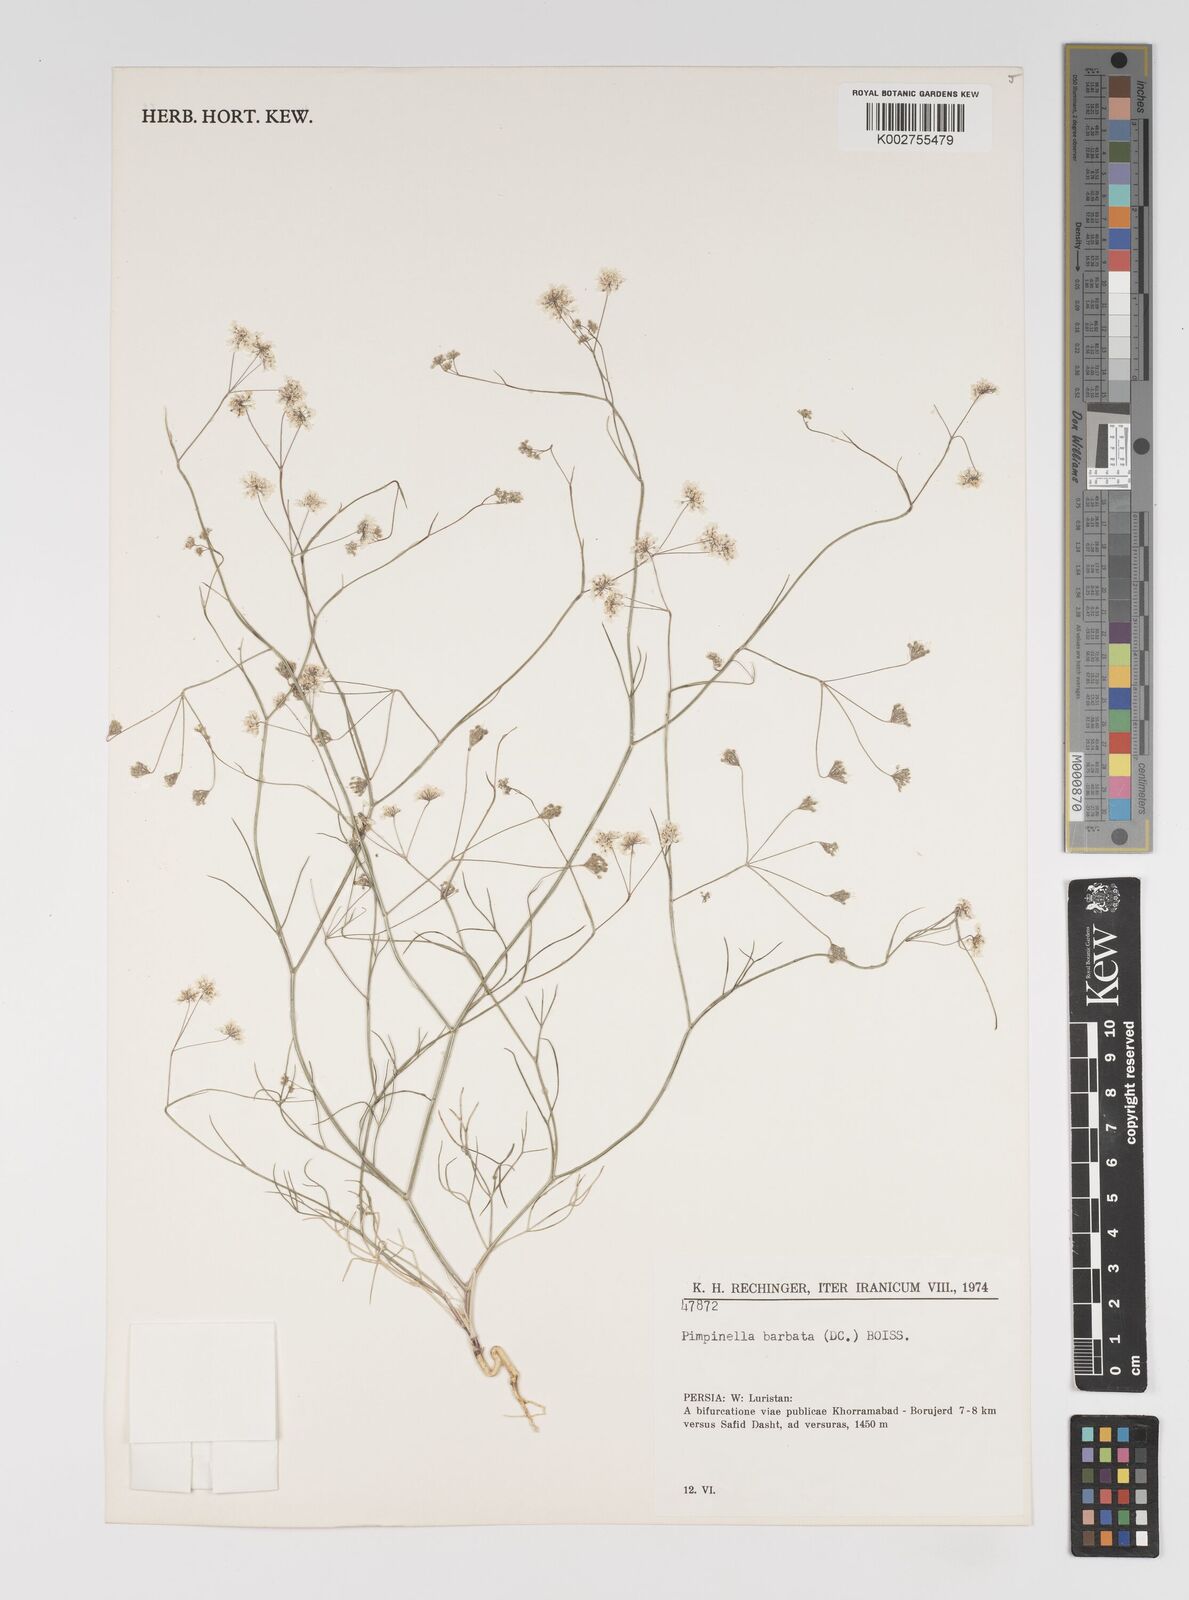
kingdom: Plantae
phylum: Tracheophyta
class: Magnoliopsida
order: Apiales
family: Apiaceae
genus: Pimpinella
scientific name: Pimpinella barbata
